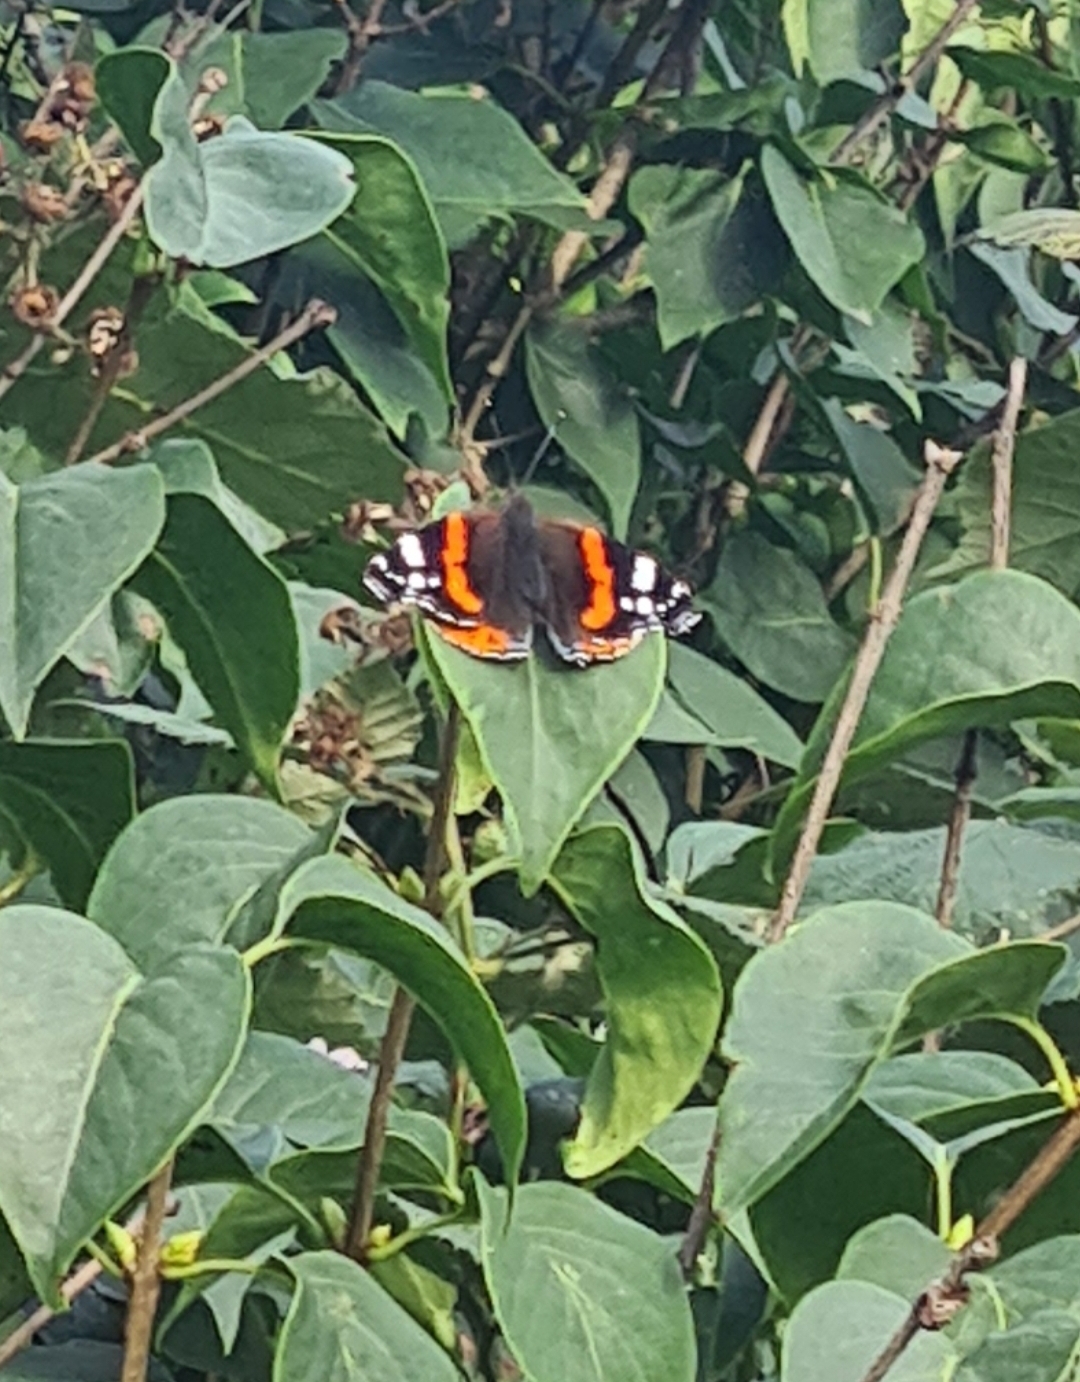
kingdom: Animalia
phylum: Arthropoda
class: Insecta
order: Lepidoptera
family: Nymphalidae
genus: Vanessa
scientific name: Vanessa atalanta
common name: Admiral
